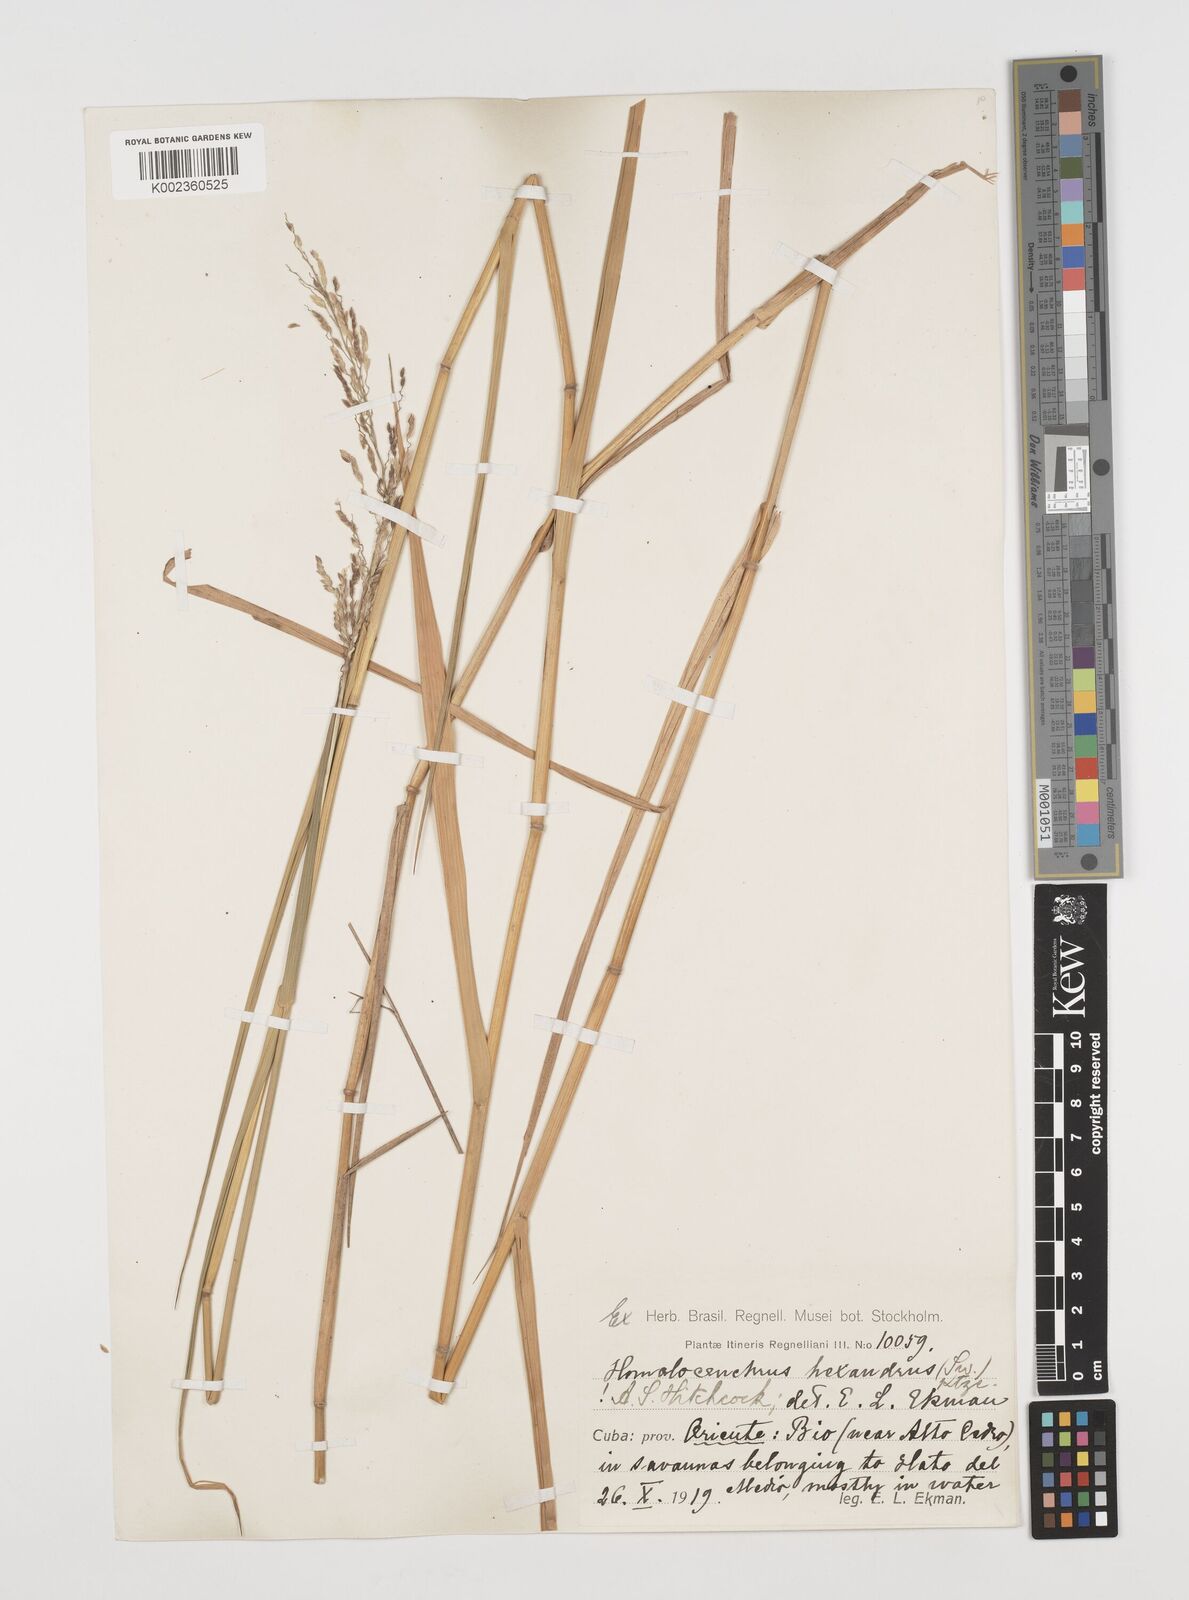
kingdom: Plantae
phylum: Tracheophyta
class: Liliopsida
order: Poales
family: Poaceae
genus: Leersia
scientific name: Leersia hexandra
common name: Southern cut grass
